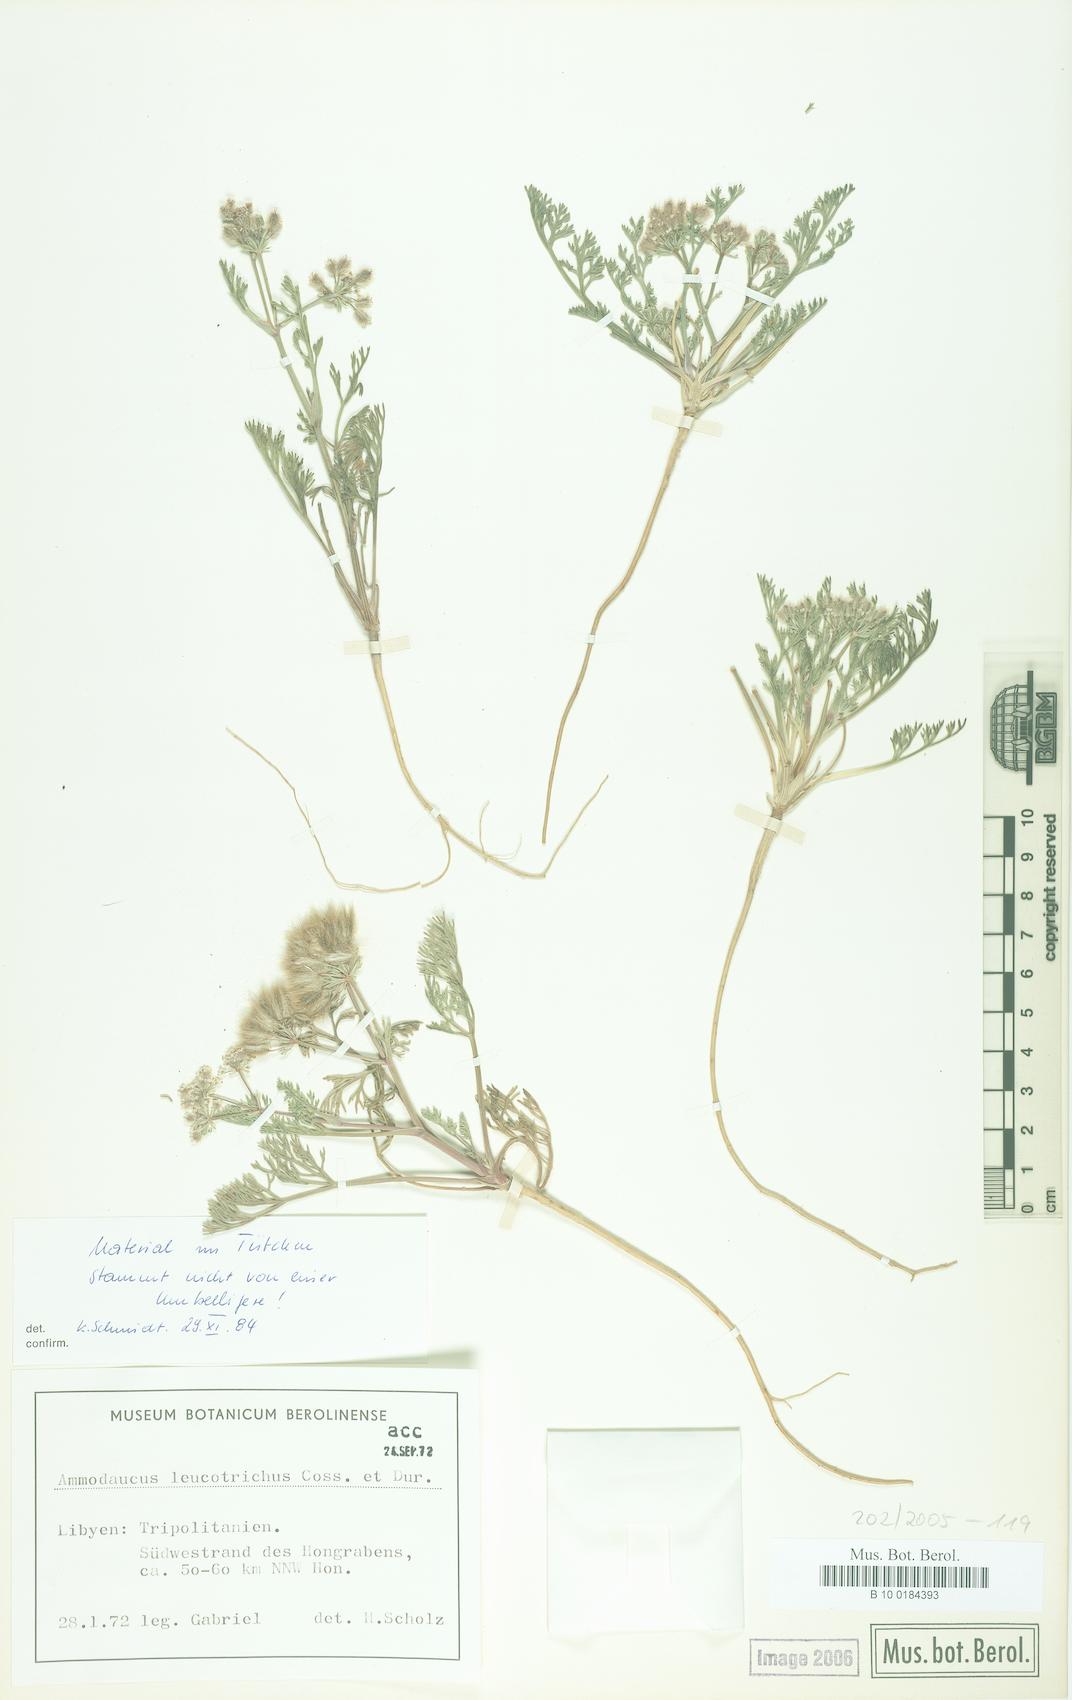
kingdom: Plantae
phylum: Tracheophyta
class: Magnoliopsida
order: Apiales
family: Apiaceae
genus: Ammodaucus
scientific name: Ammodaucus leucotrichus
